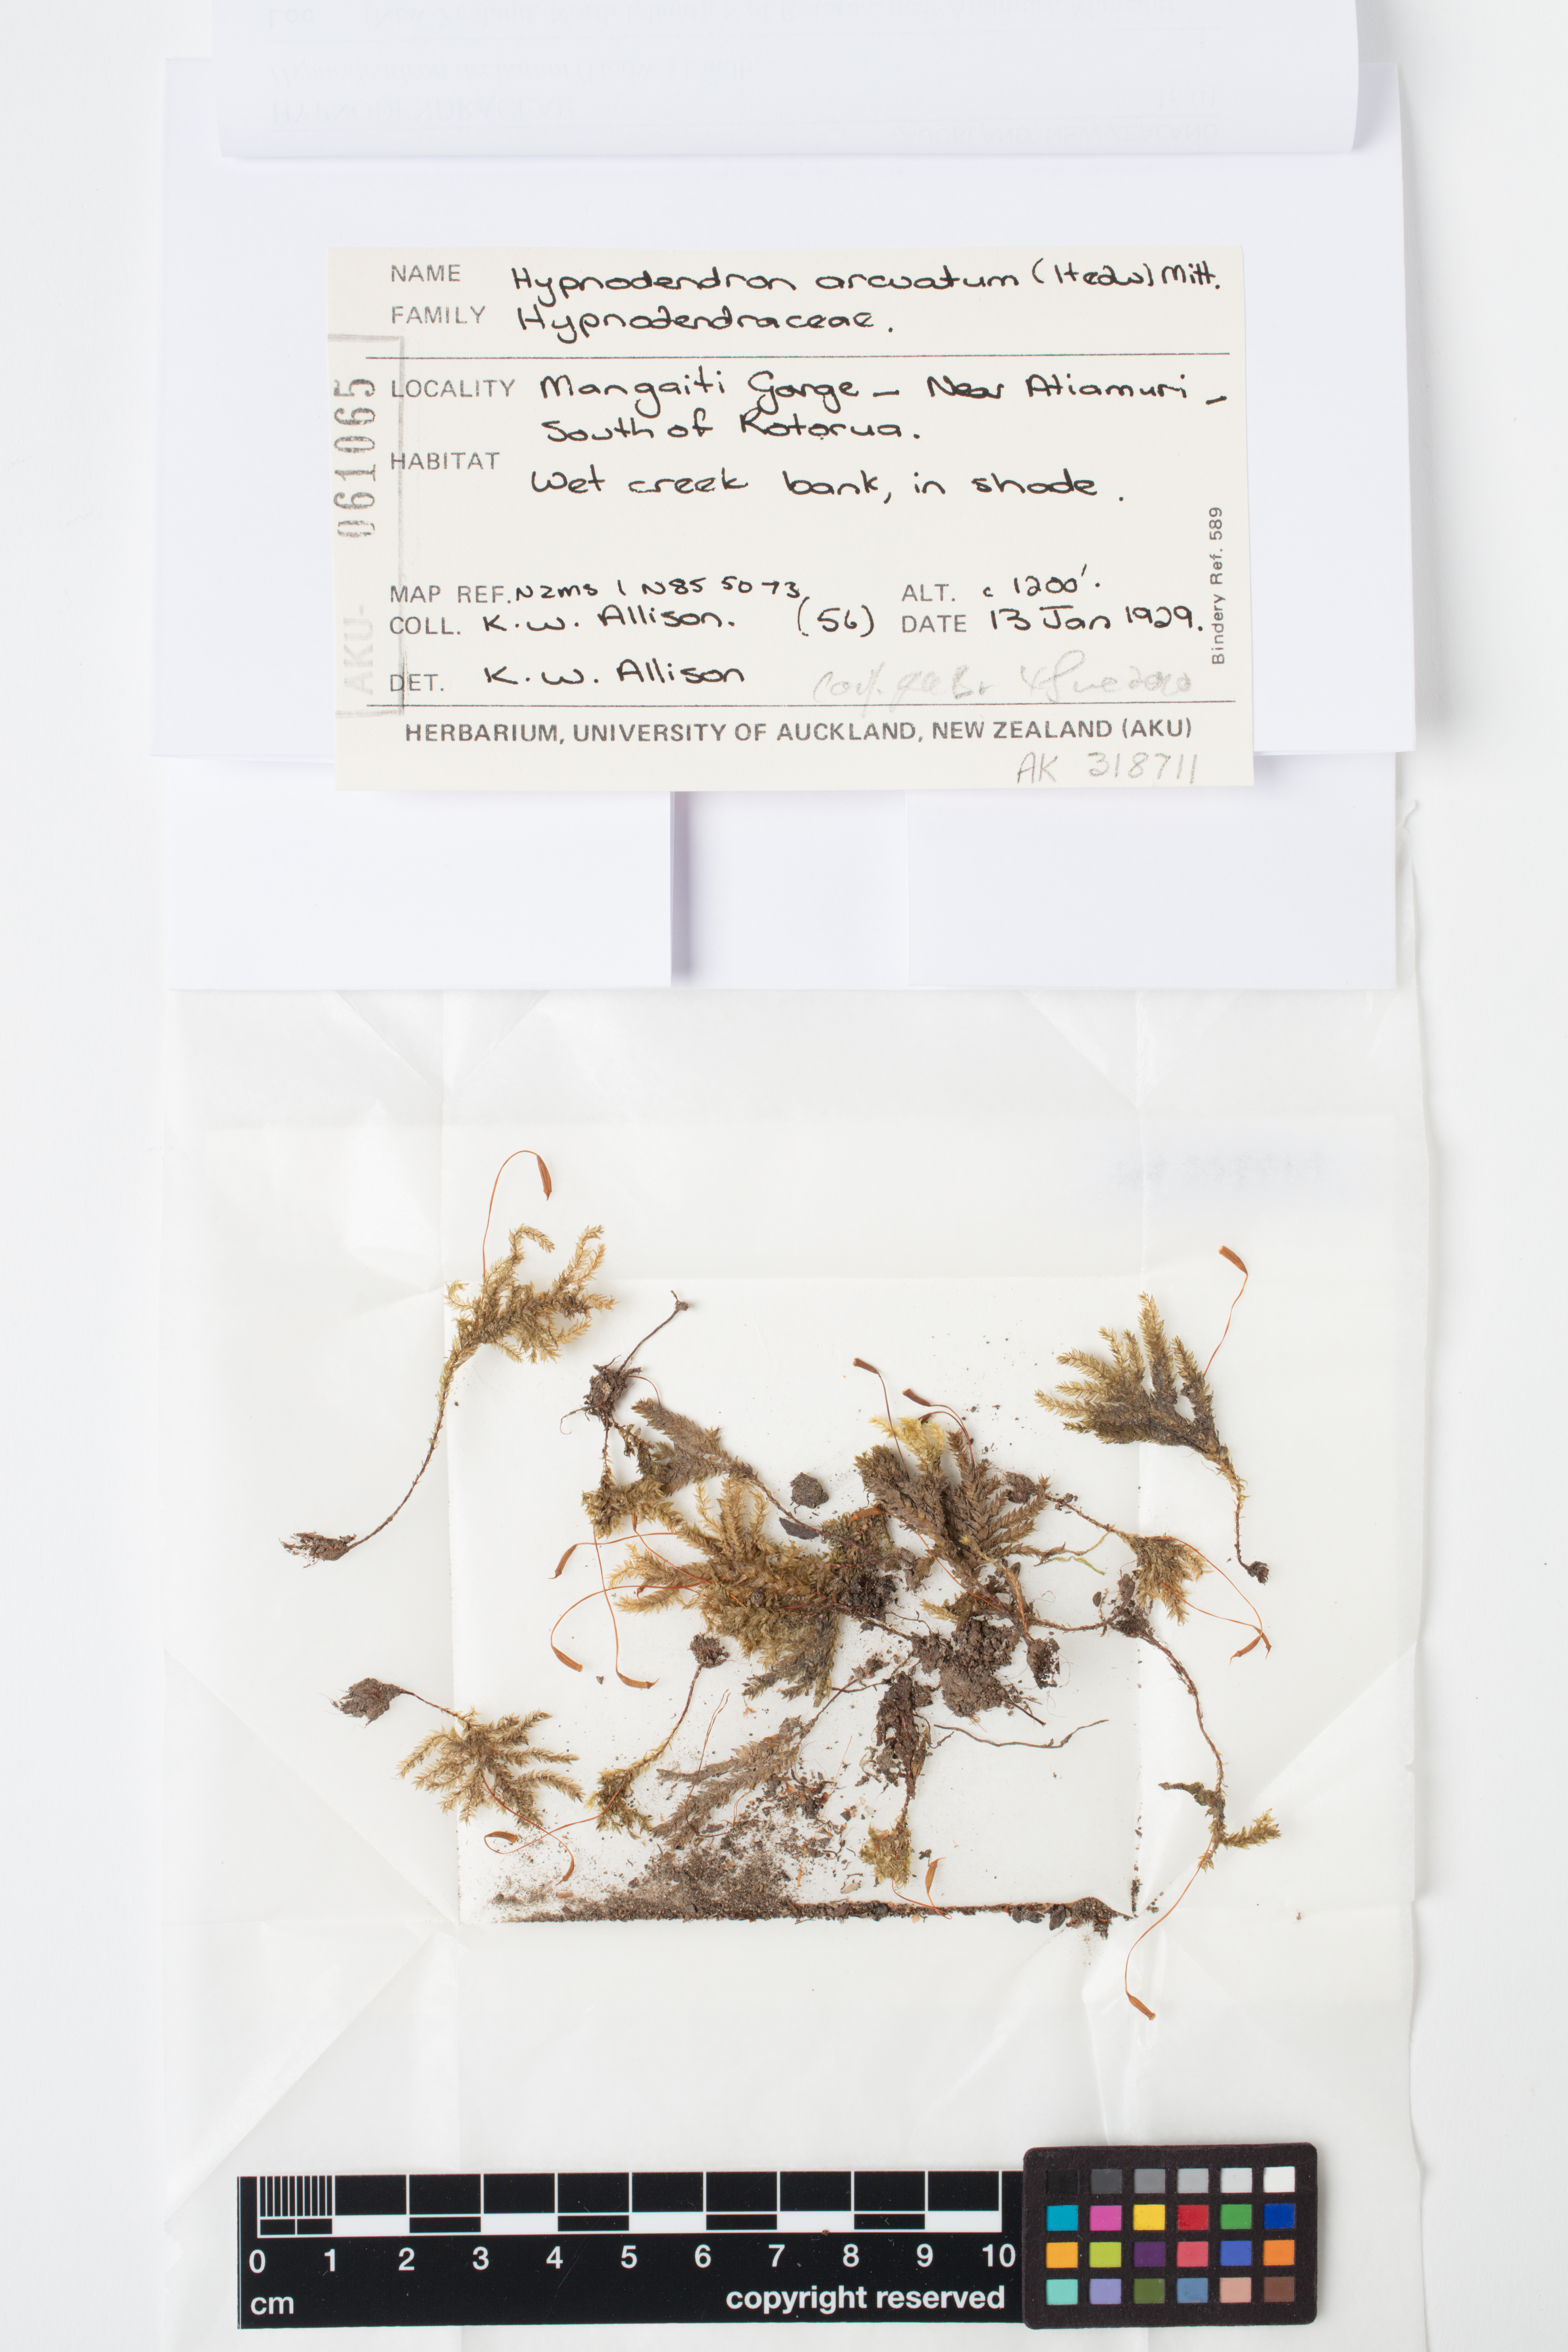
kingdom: Plantae
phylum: Bryophyta
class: Bryopsida
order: Hypnodendrales
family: Spiridentaceae
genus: Hypnodendron
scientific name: Hypnodendron arcuatum
